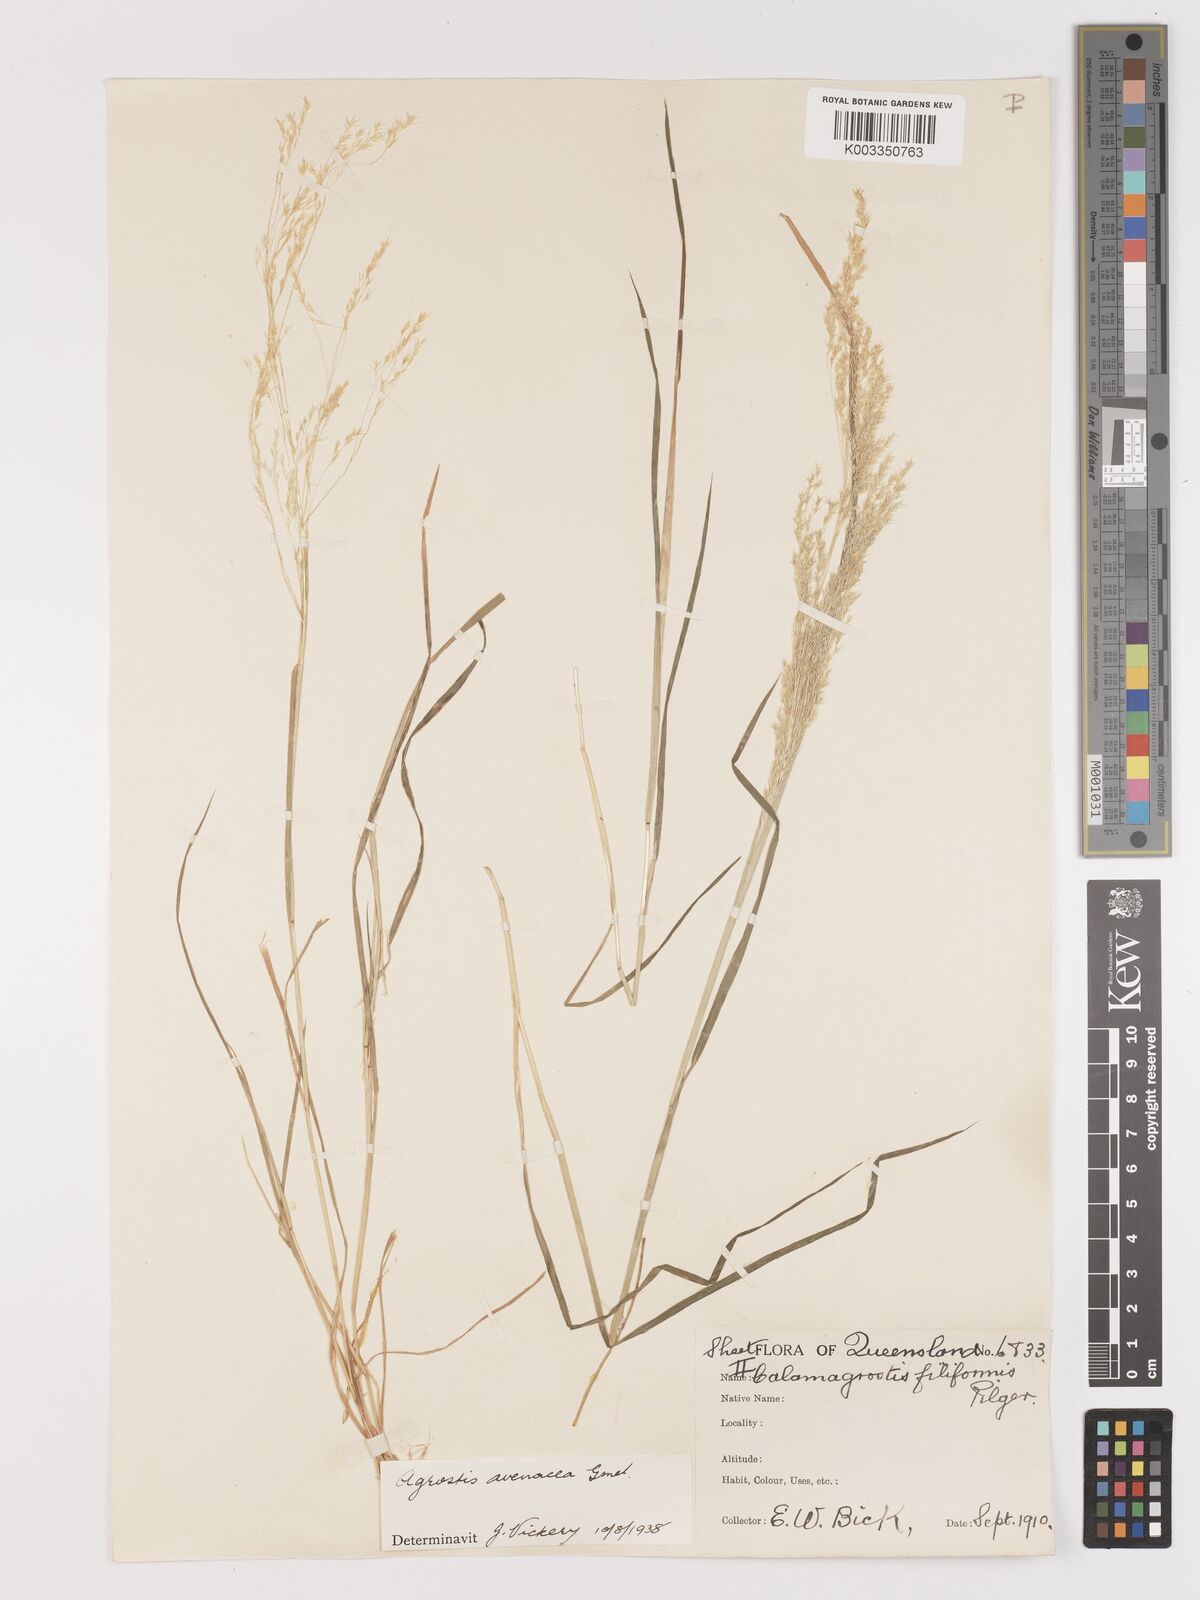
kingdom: Plantae
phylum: Tracheophyta
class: Liliopsida
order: Poales
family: Poaceae
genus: Lachnagrostis
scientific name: Lachnagrostis filiformis
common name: Bentgrass
